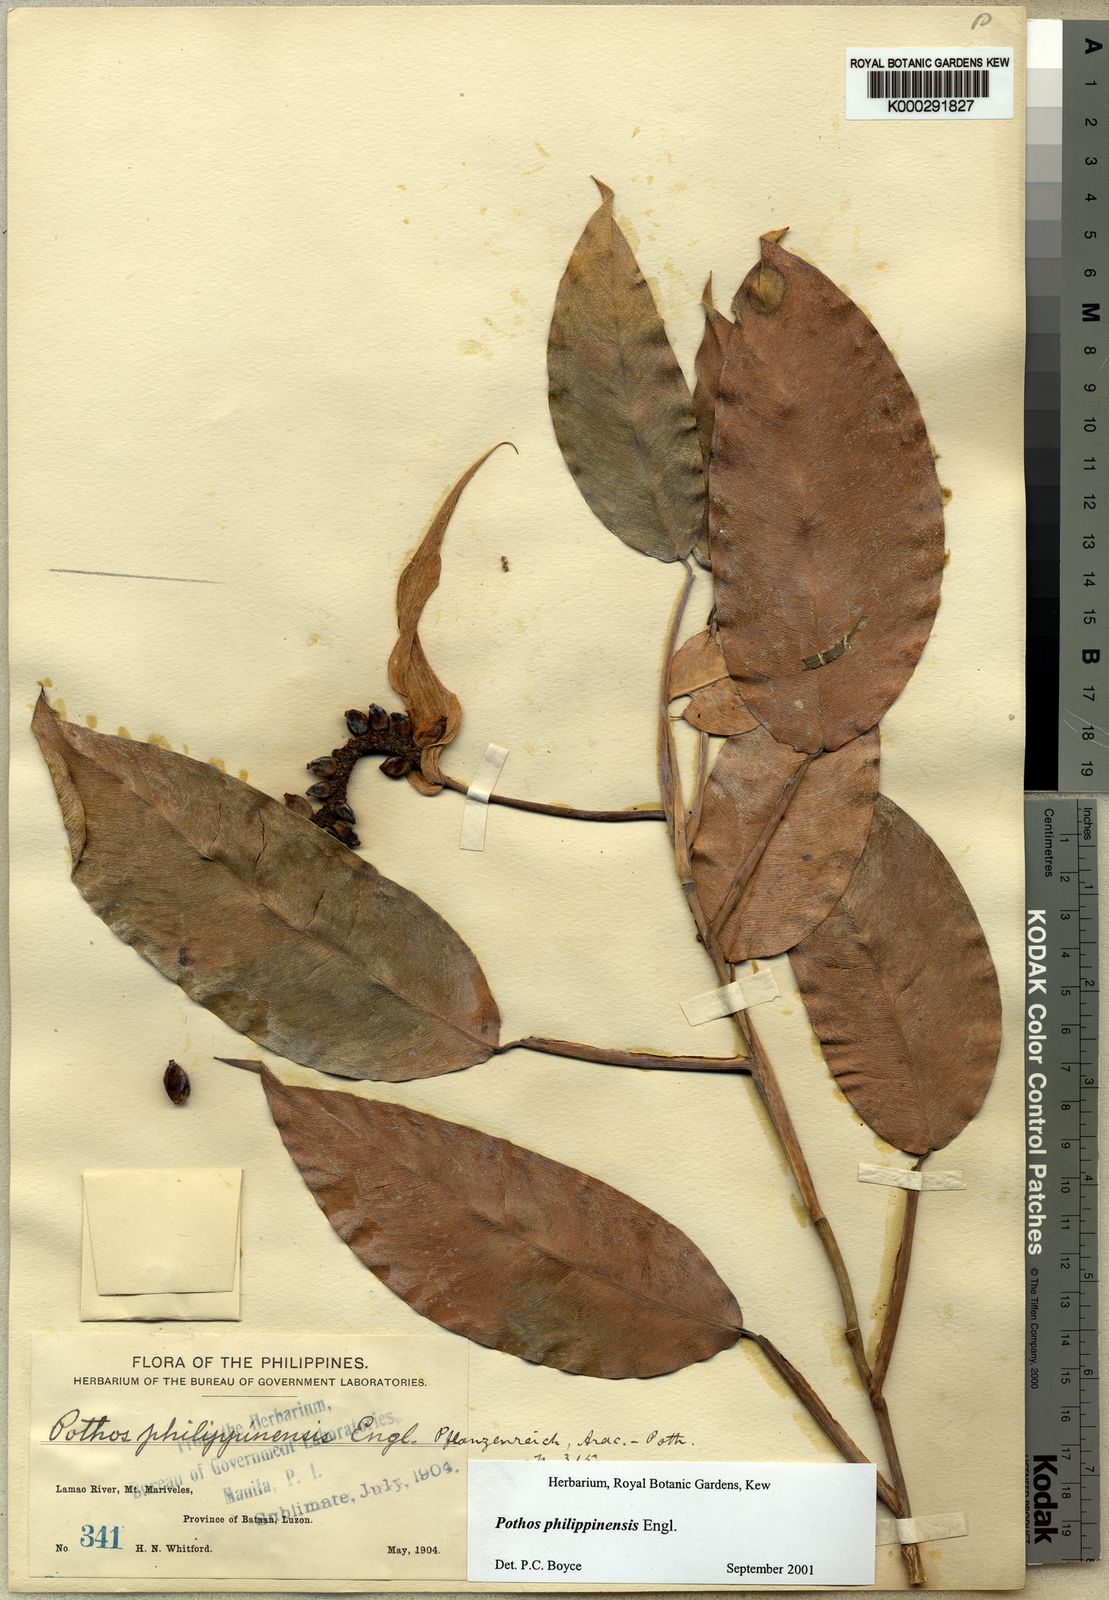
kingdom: Plantae
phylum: Tracheophyta
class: Liliopsida
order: Alismatales
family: Araceae
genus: Pothos
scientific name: Pothos philippinensis
